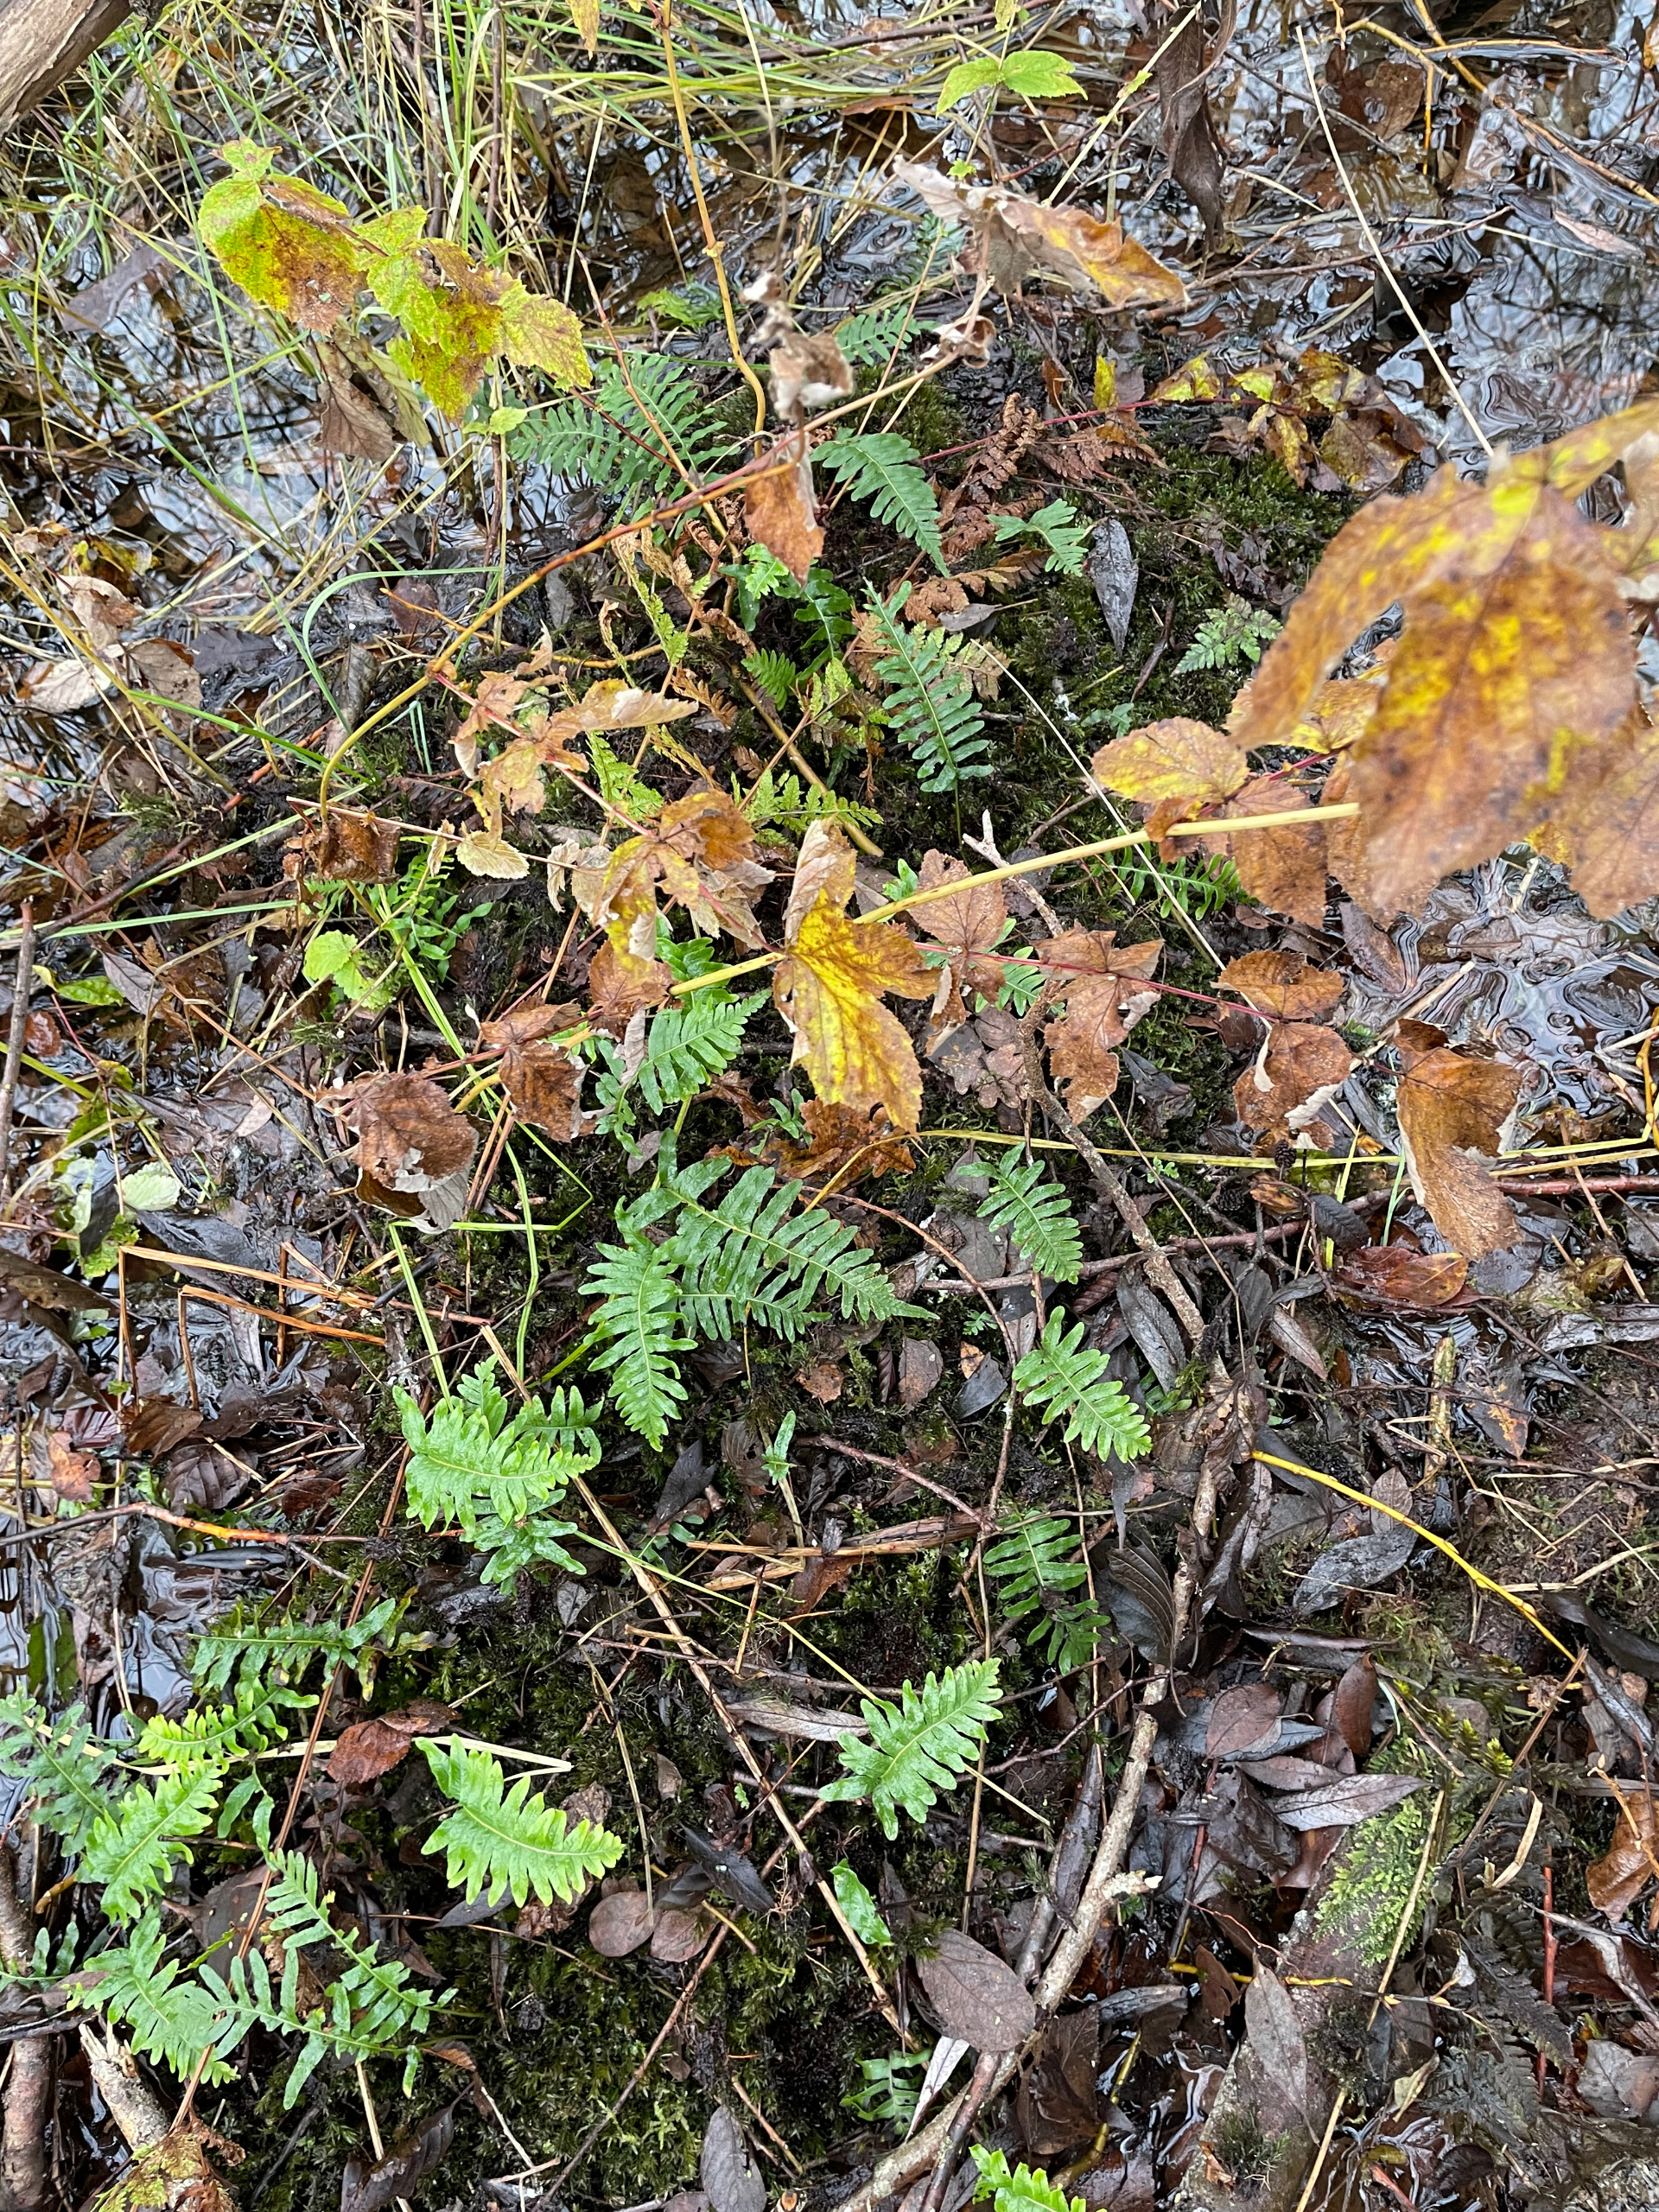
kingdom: Plantae
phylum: Tracheophyta
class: Polypodiopsida
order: Polypodiales
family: Polypodiaceae
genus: Polypodium
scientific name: Polypodium vulgare
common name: Almindelig engelsød
